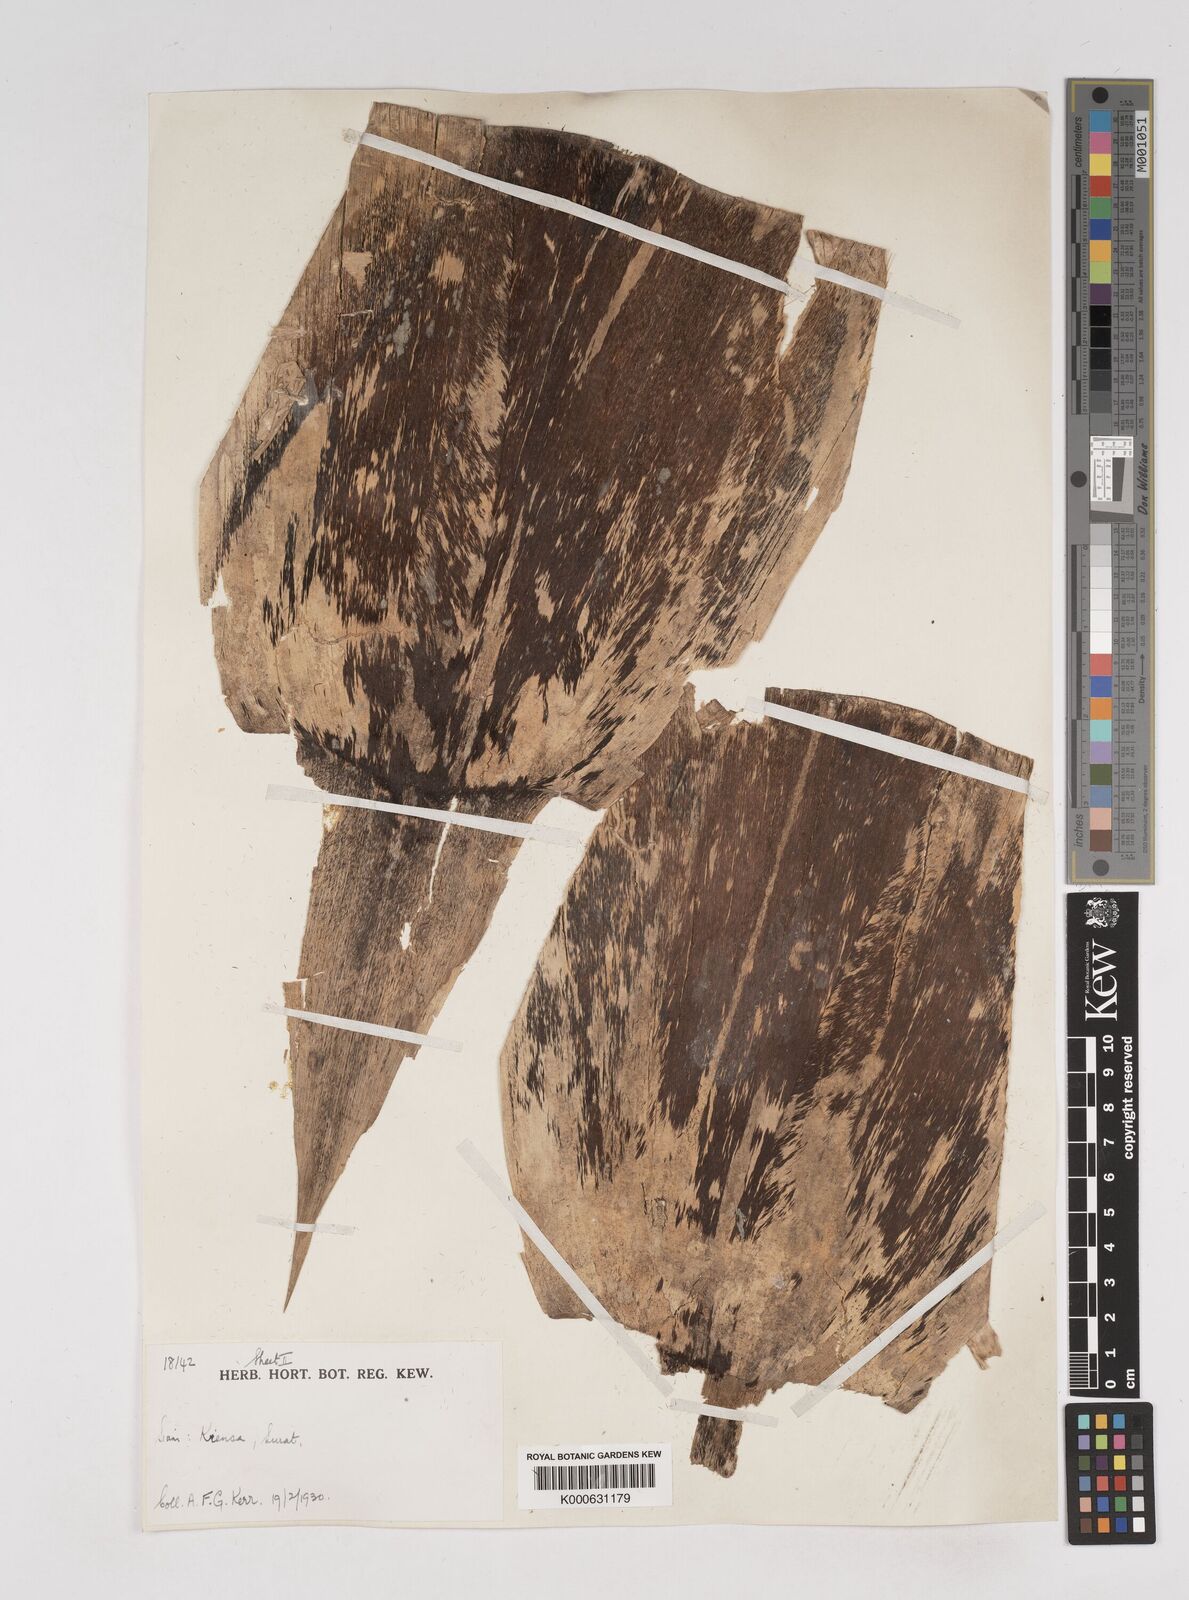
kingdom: Plantae
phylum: Tracheophyta
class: Liliopsida
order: Poales
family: Poaceae
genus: Gigantochloa
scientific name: Gigantochloa
